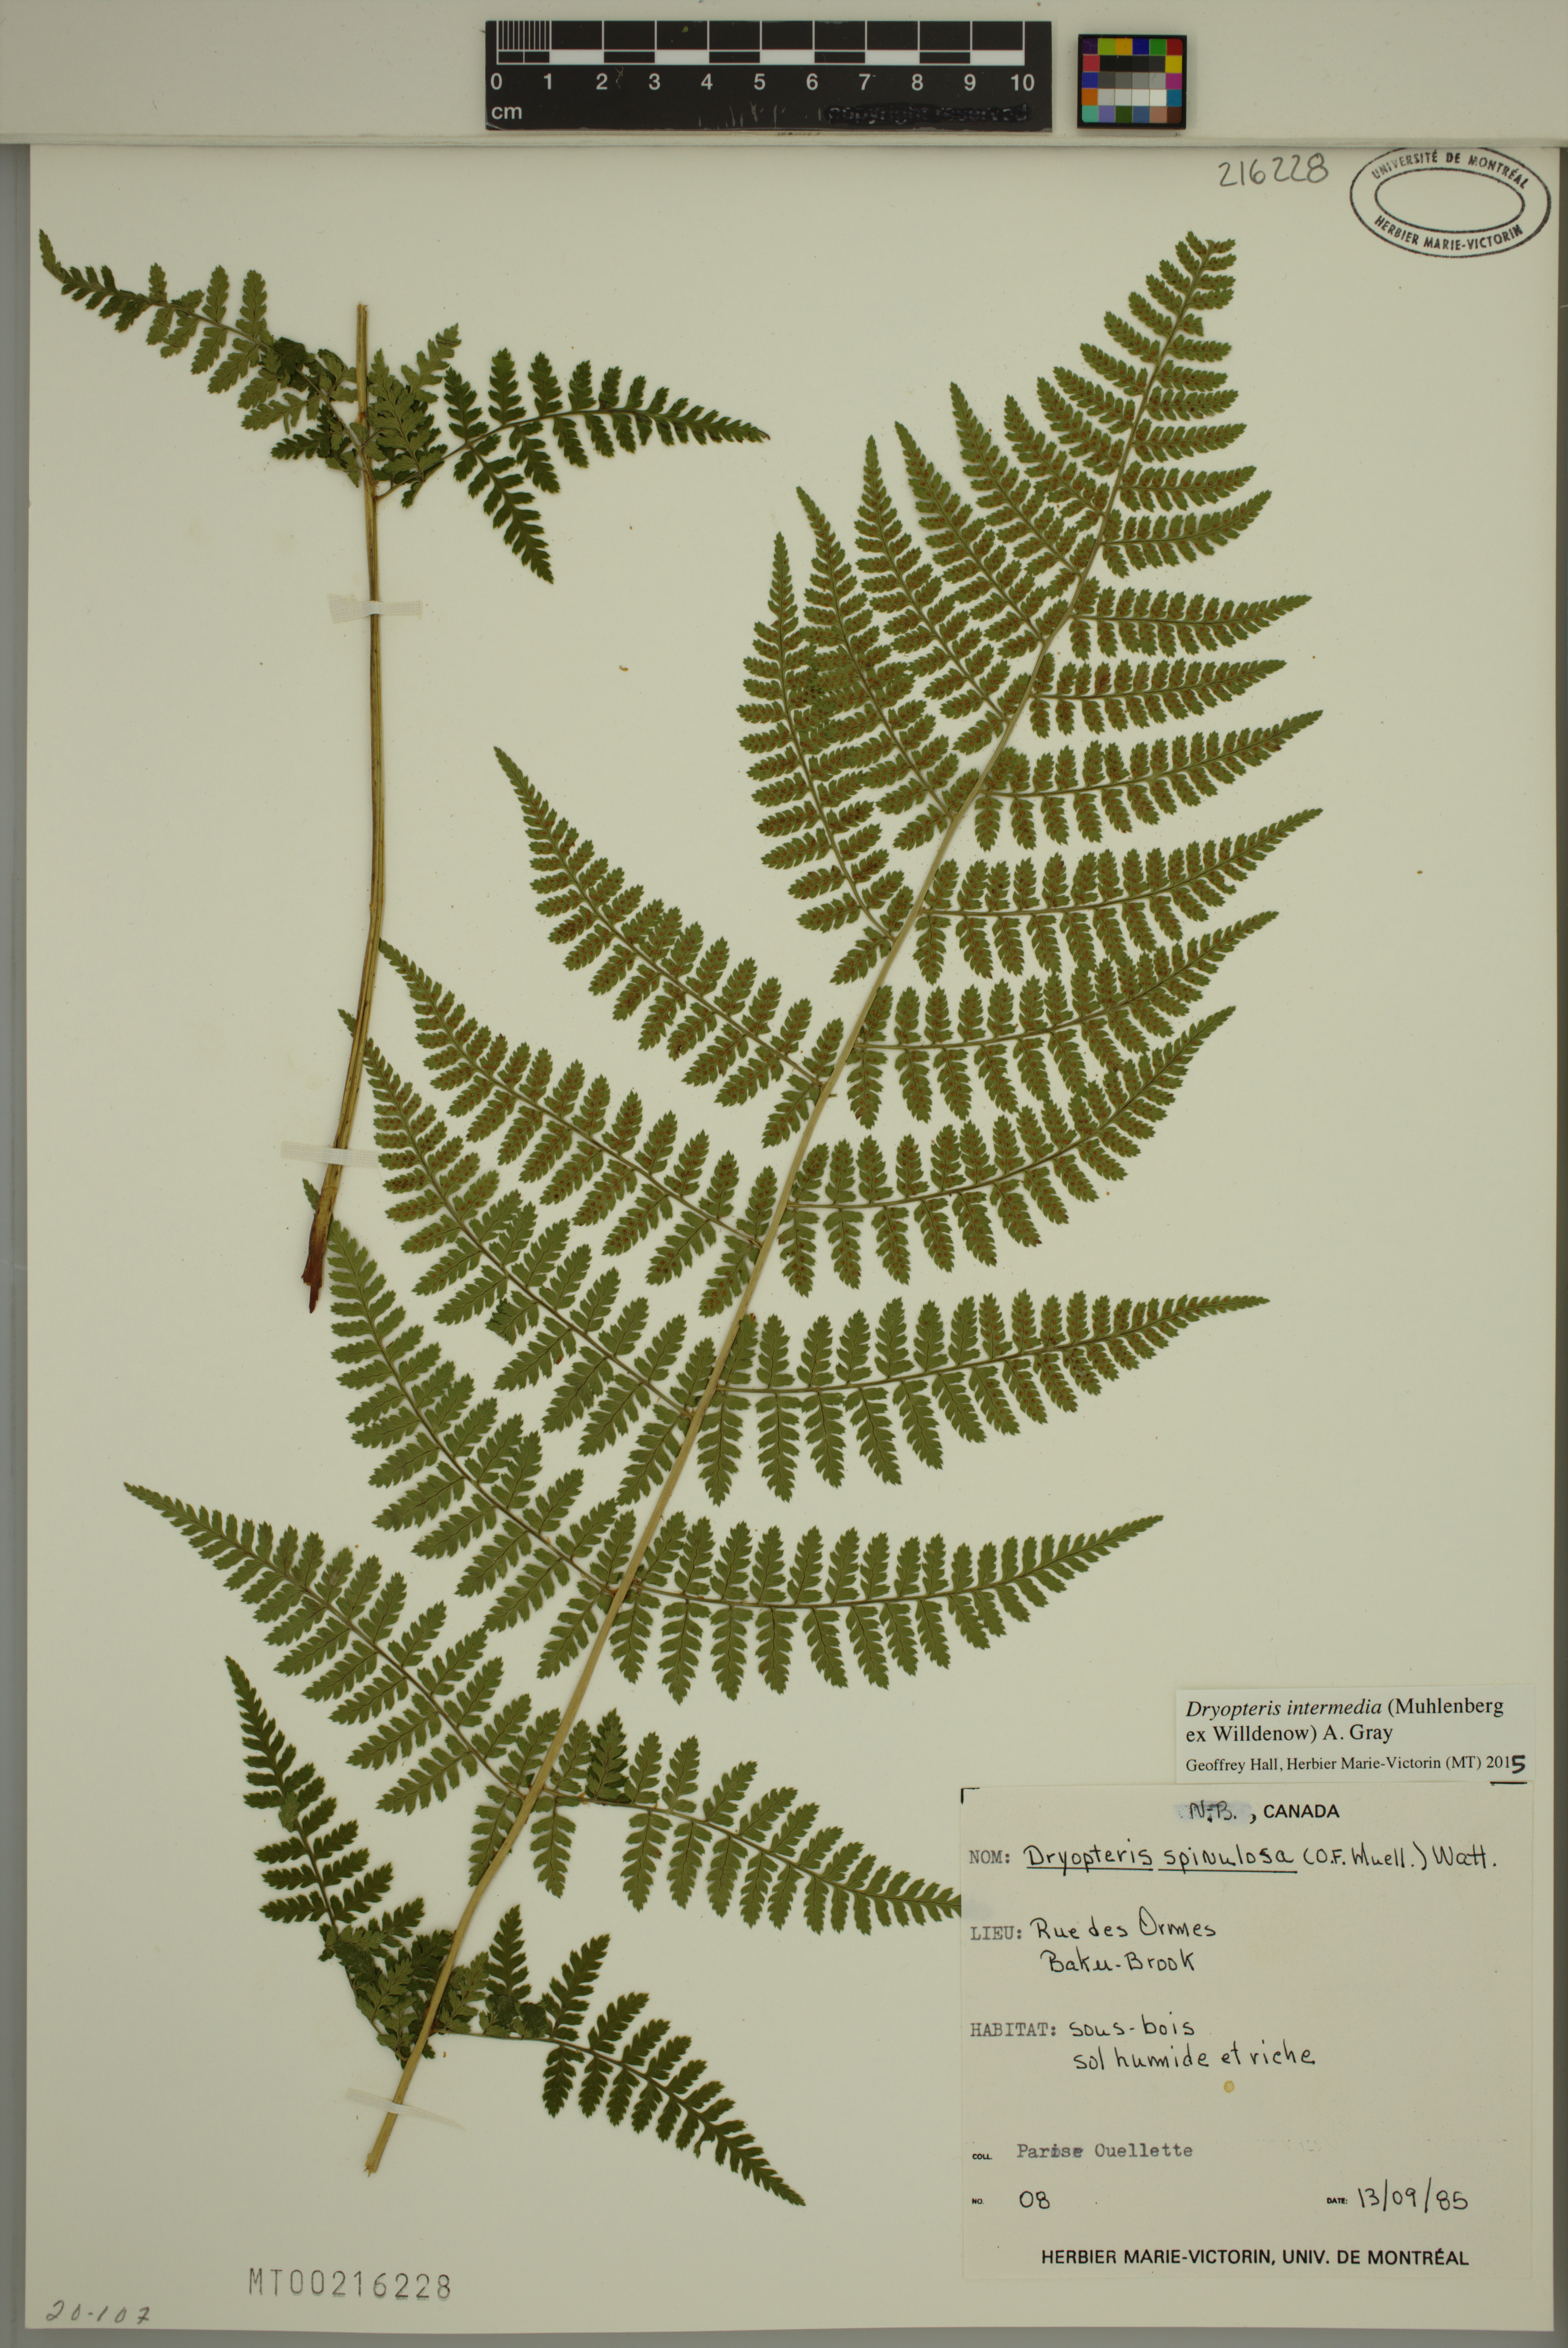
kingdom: Plantae
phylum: Tracheophyta
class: Polypodiopsida
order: Polypodiales
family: Dryopteridaceae
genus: Dryopteris
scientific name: Dryopteris intermedia
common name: Evergreen wood fern
